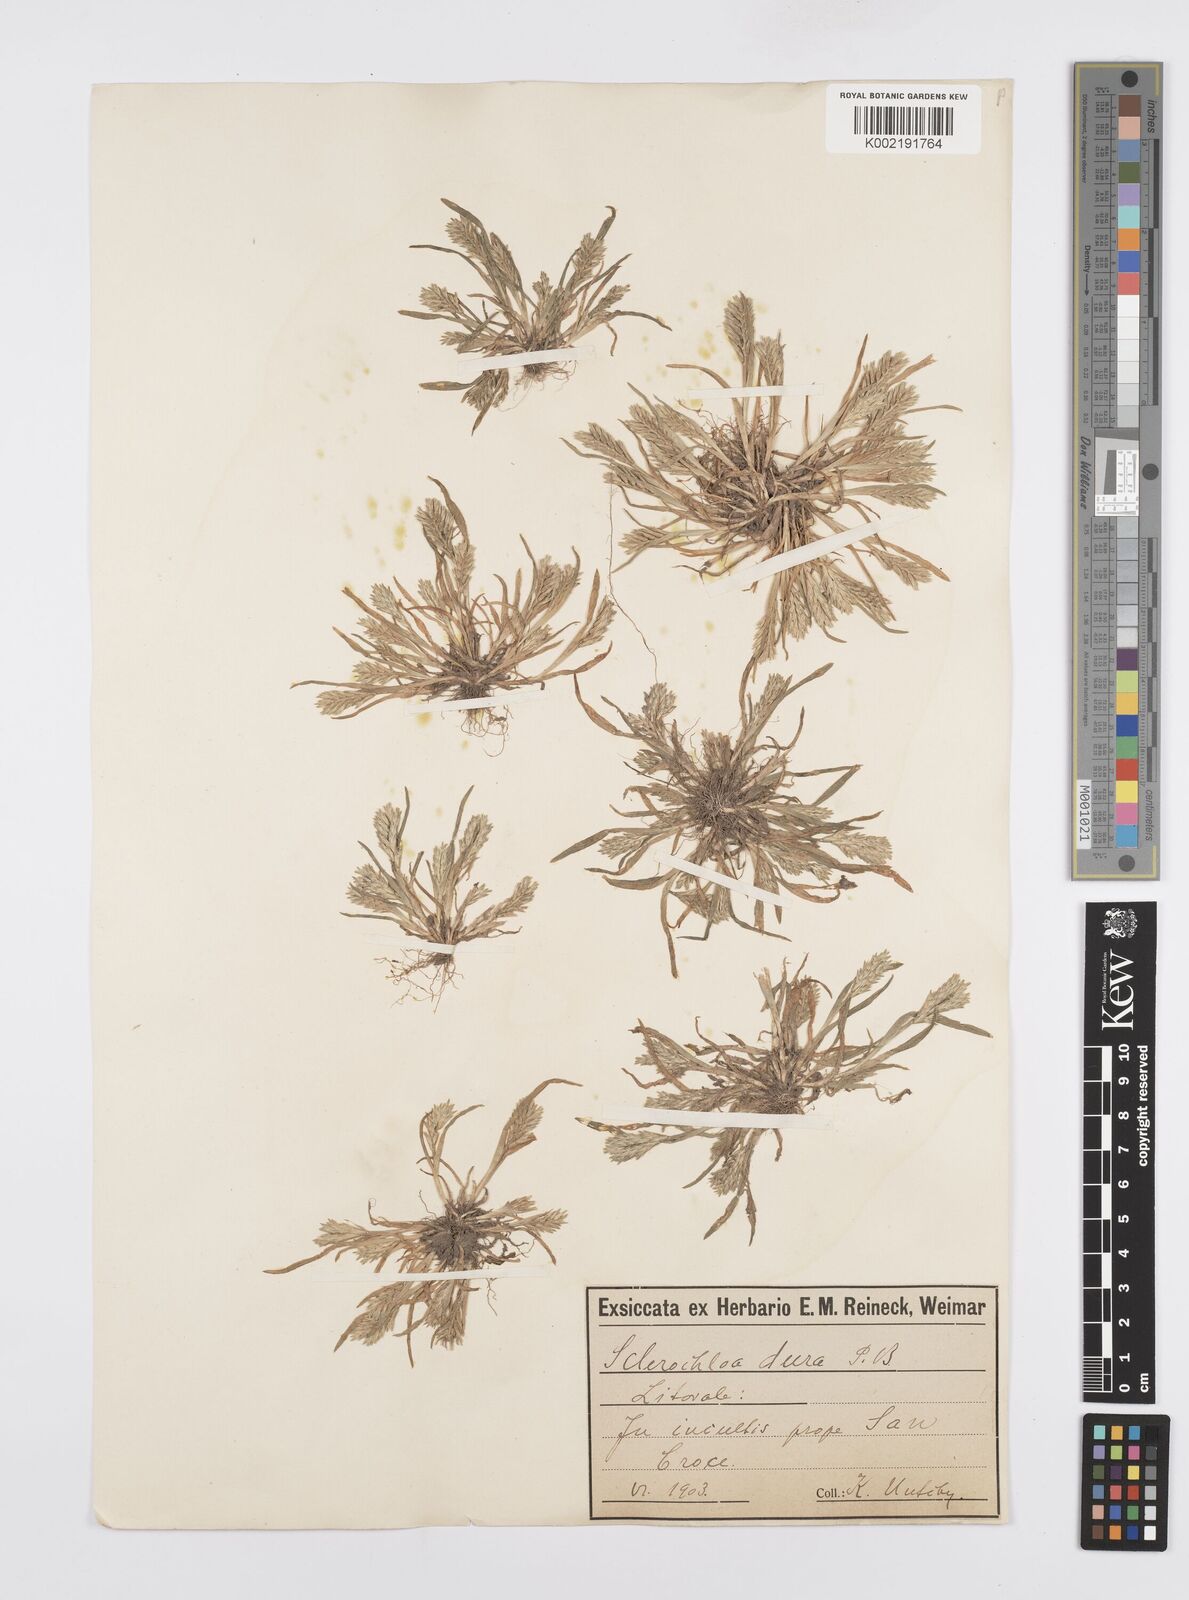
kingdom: Plantae
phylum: Tracheophyta
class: Liliopsida
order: Poales
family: Poaceae
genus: Sclerochloa
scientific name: Sclerochloa dura
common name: Common hardgrass
